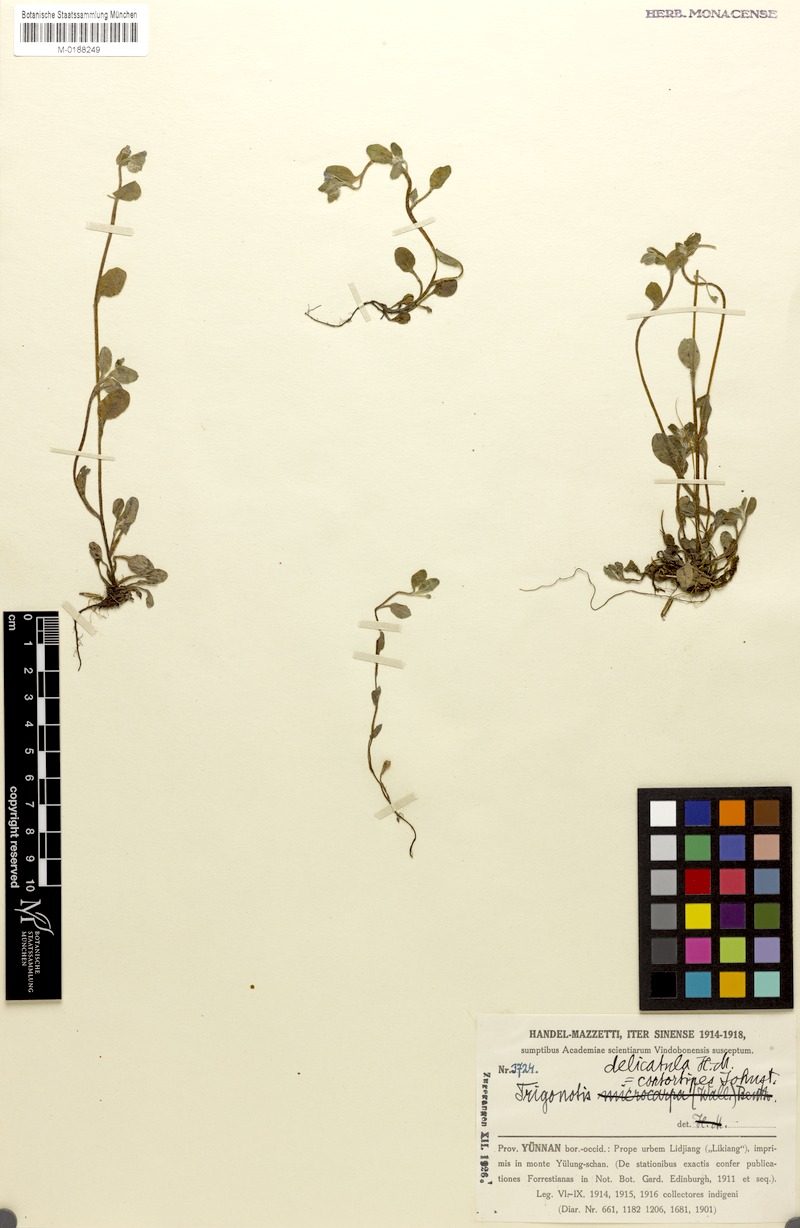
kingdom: Plantae
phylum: Tracheophyta
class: Magnoliopsida
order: Boraginales
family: Boraginaceae
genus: Trigonotis
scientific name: Trigonotis delicatula
